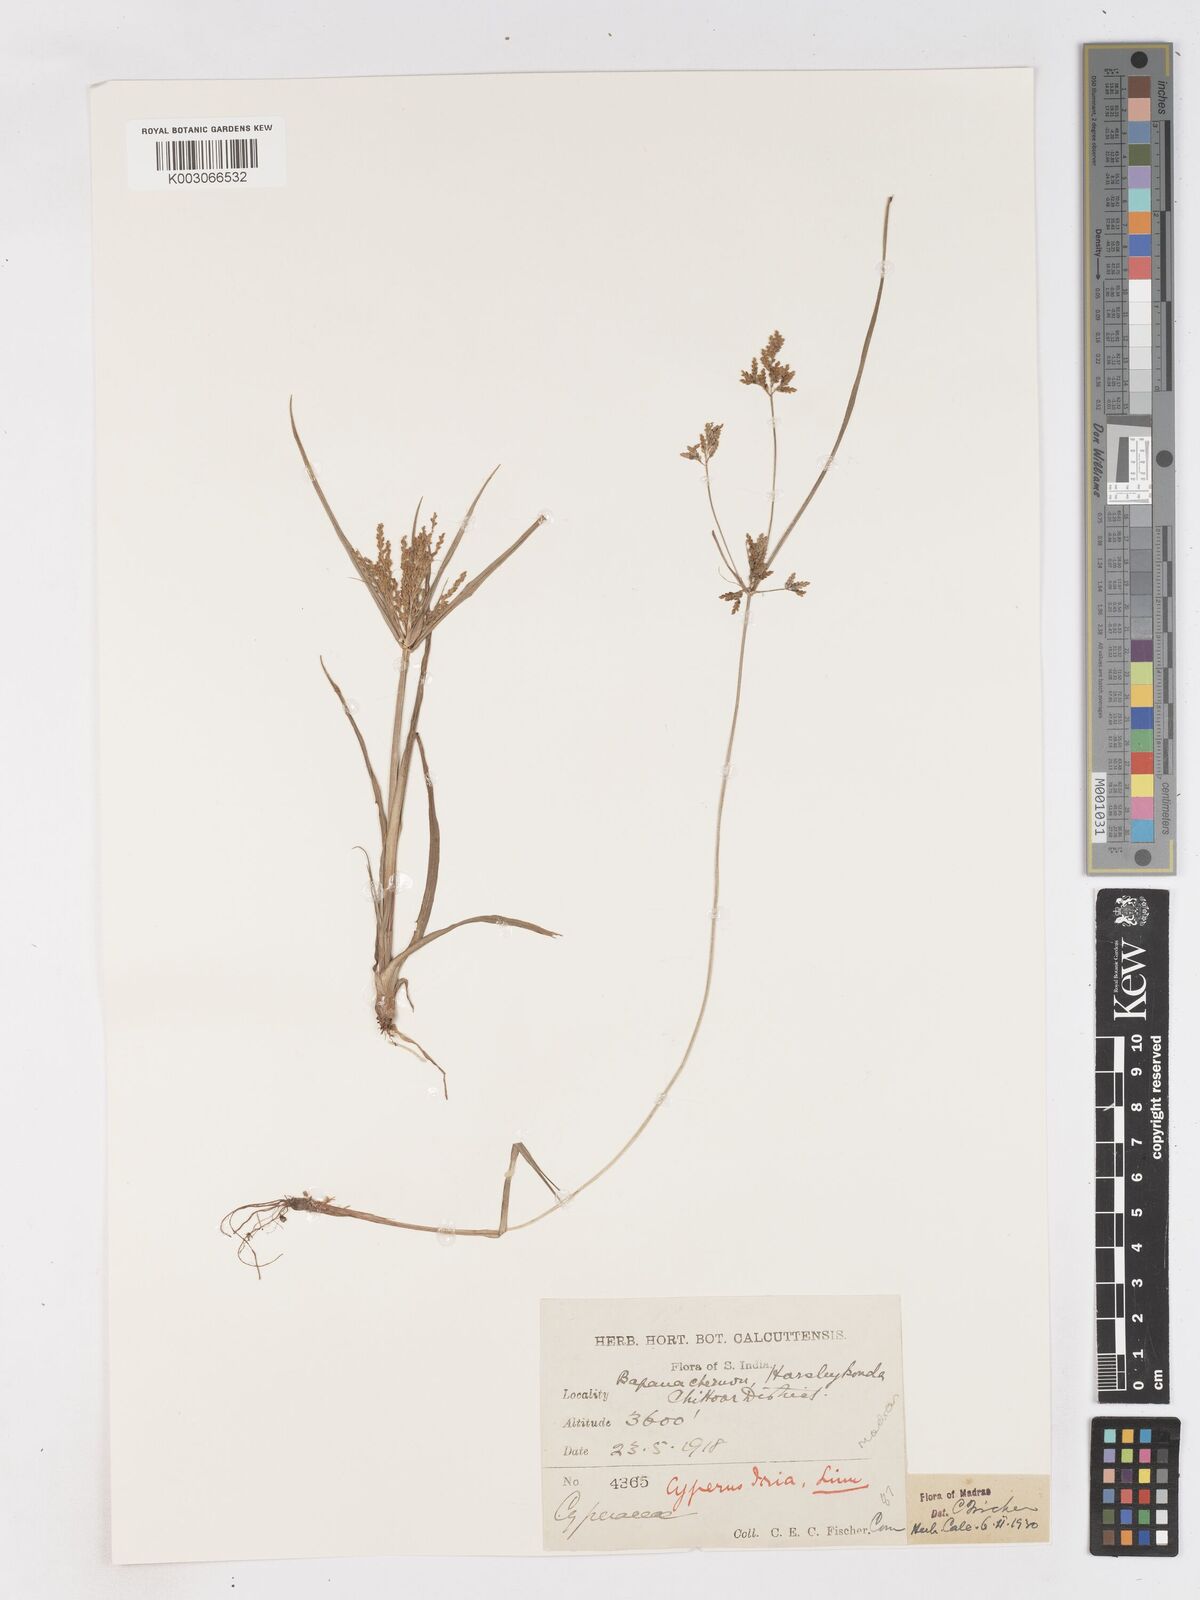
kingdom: Plantae
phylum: Tracheophyta
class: Liliopsida
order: Poales
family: Cyperaceae
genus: Cyperus
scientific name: Cyperus iria
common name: Ricefield flatsedge
